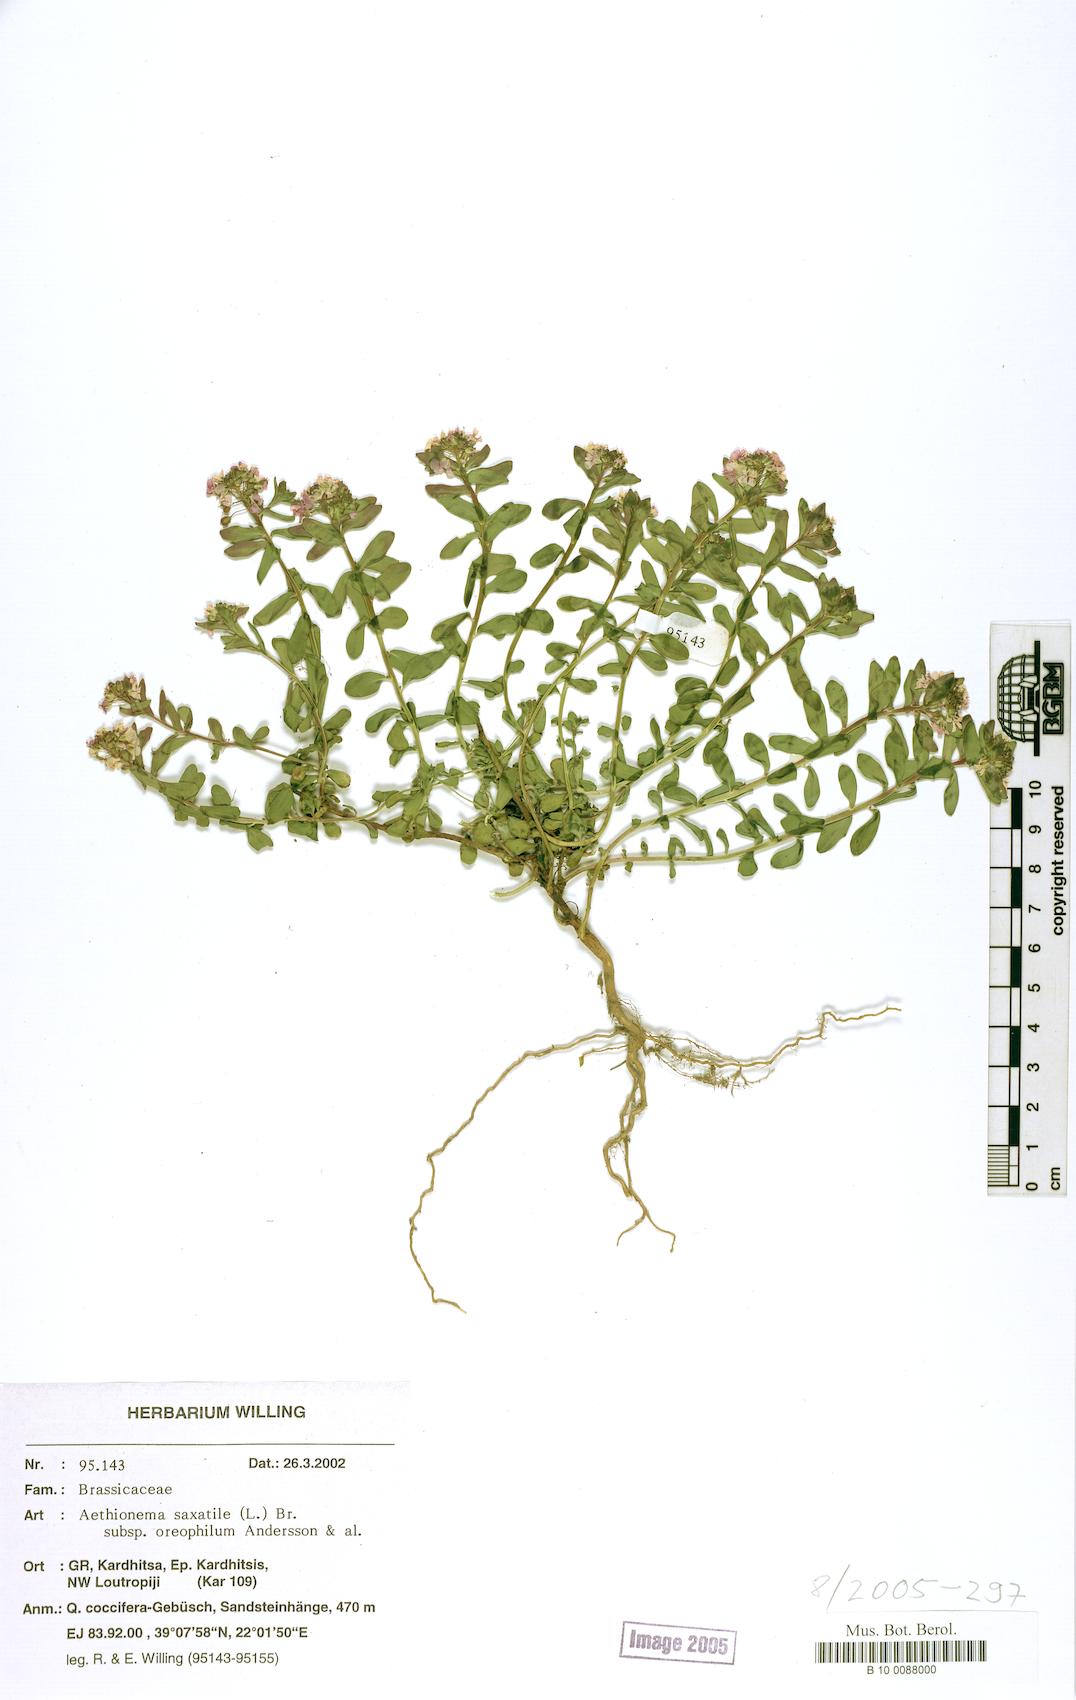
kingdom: Plantae
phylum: Tracheophyta
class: Magnoliopsida
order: Brassicales
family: Brassicaceae
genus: Aethionema
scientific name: Aethionema saxatile
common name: Burnt candytuft
